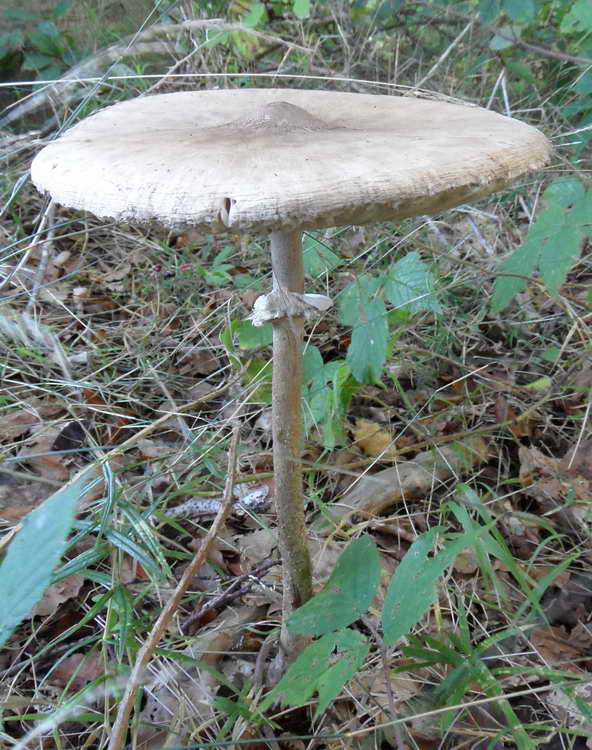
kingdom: Fungi
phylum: Basidiomycota
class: Agaricomycetes
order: Agaricales
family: Agaricaceae
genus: Macrolepiota
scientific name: Macrolepiota mastoidea
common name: puklet kæmpeparasolhat
